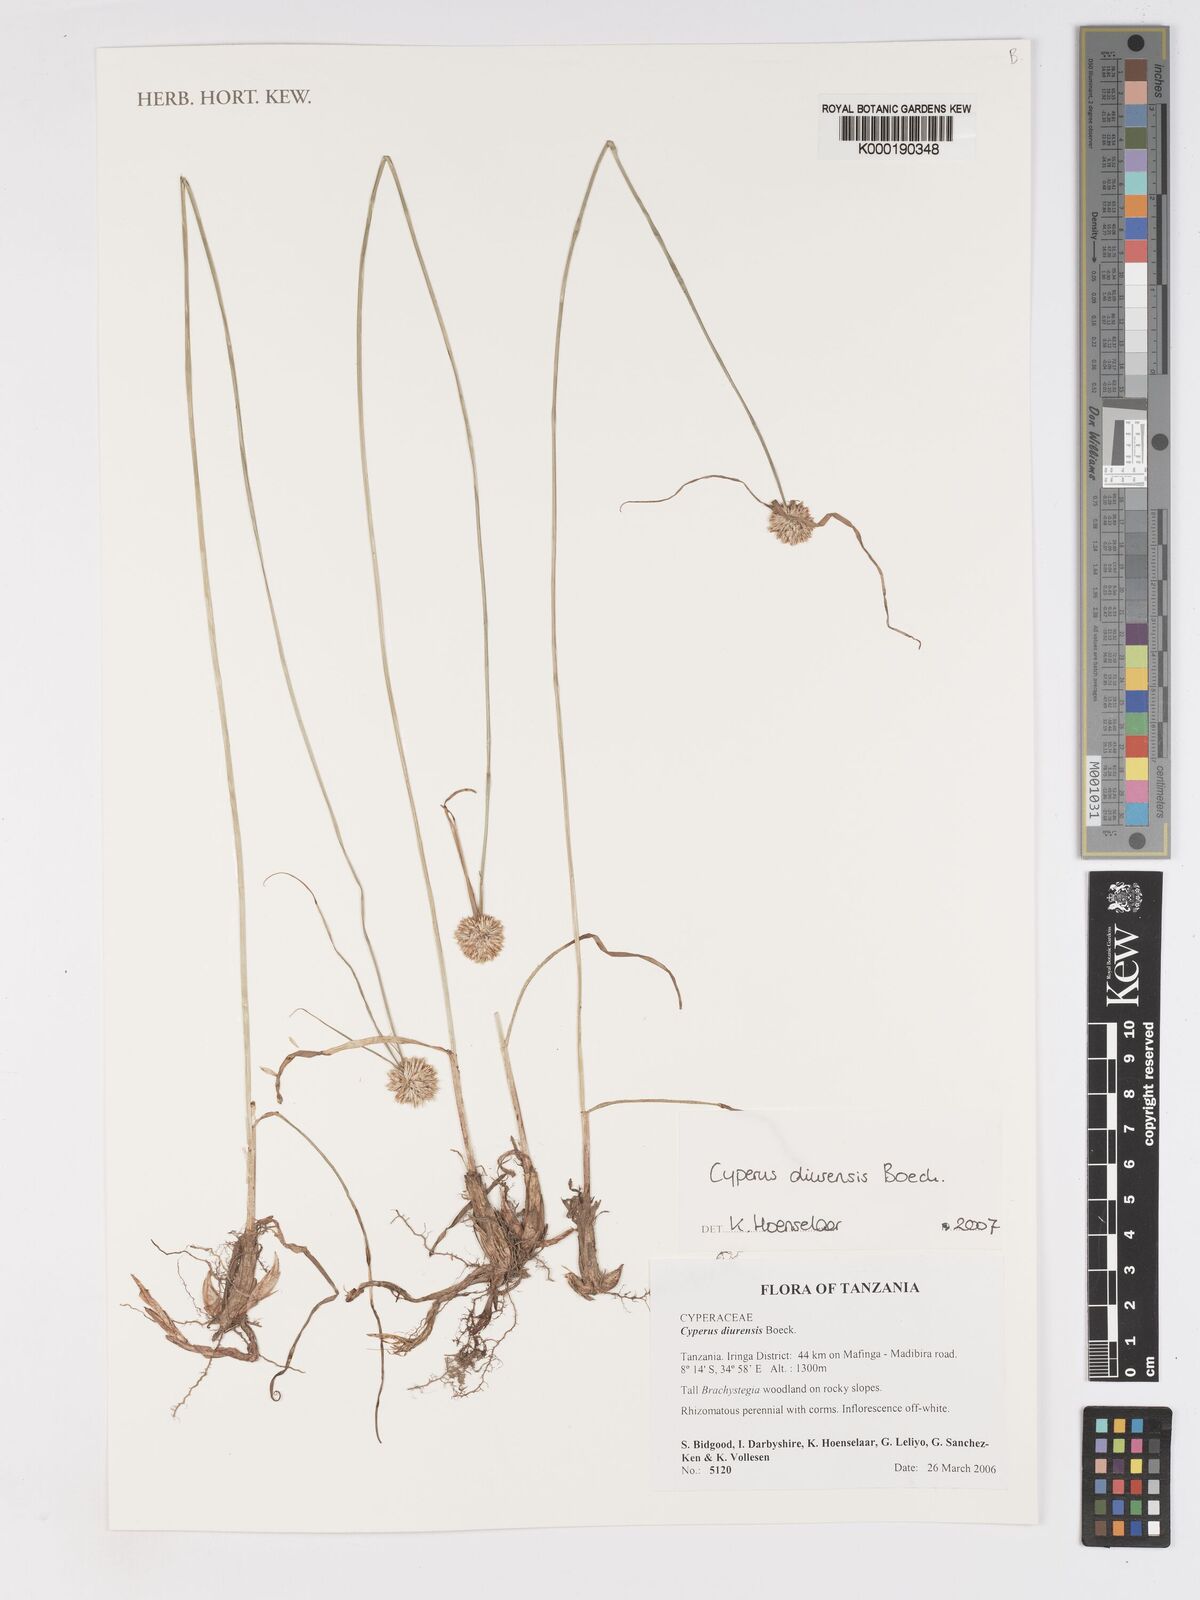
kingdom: Plantae
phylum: Tracheophyta
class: Liliopsida
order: Poales
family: Cyperaceae
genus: Cyperus
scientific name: Cyperus diurensis
